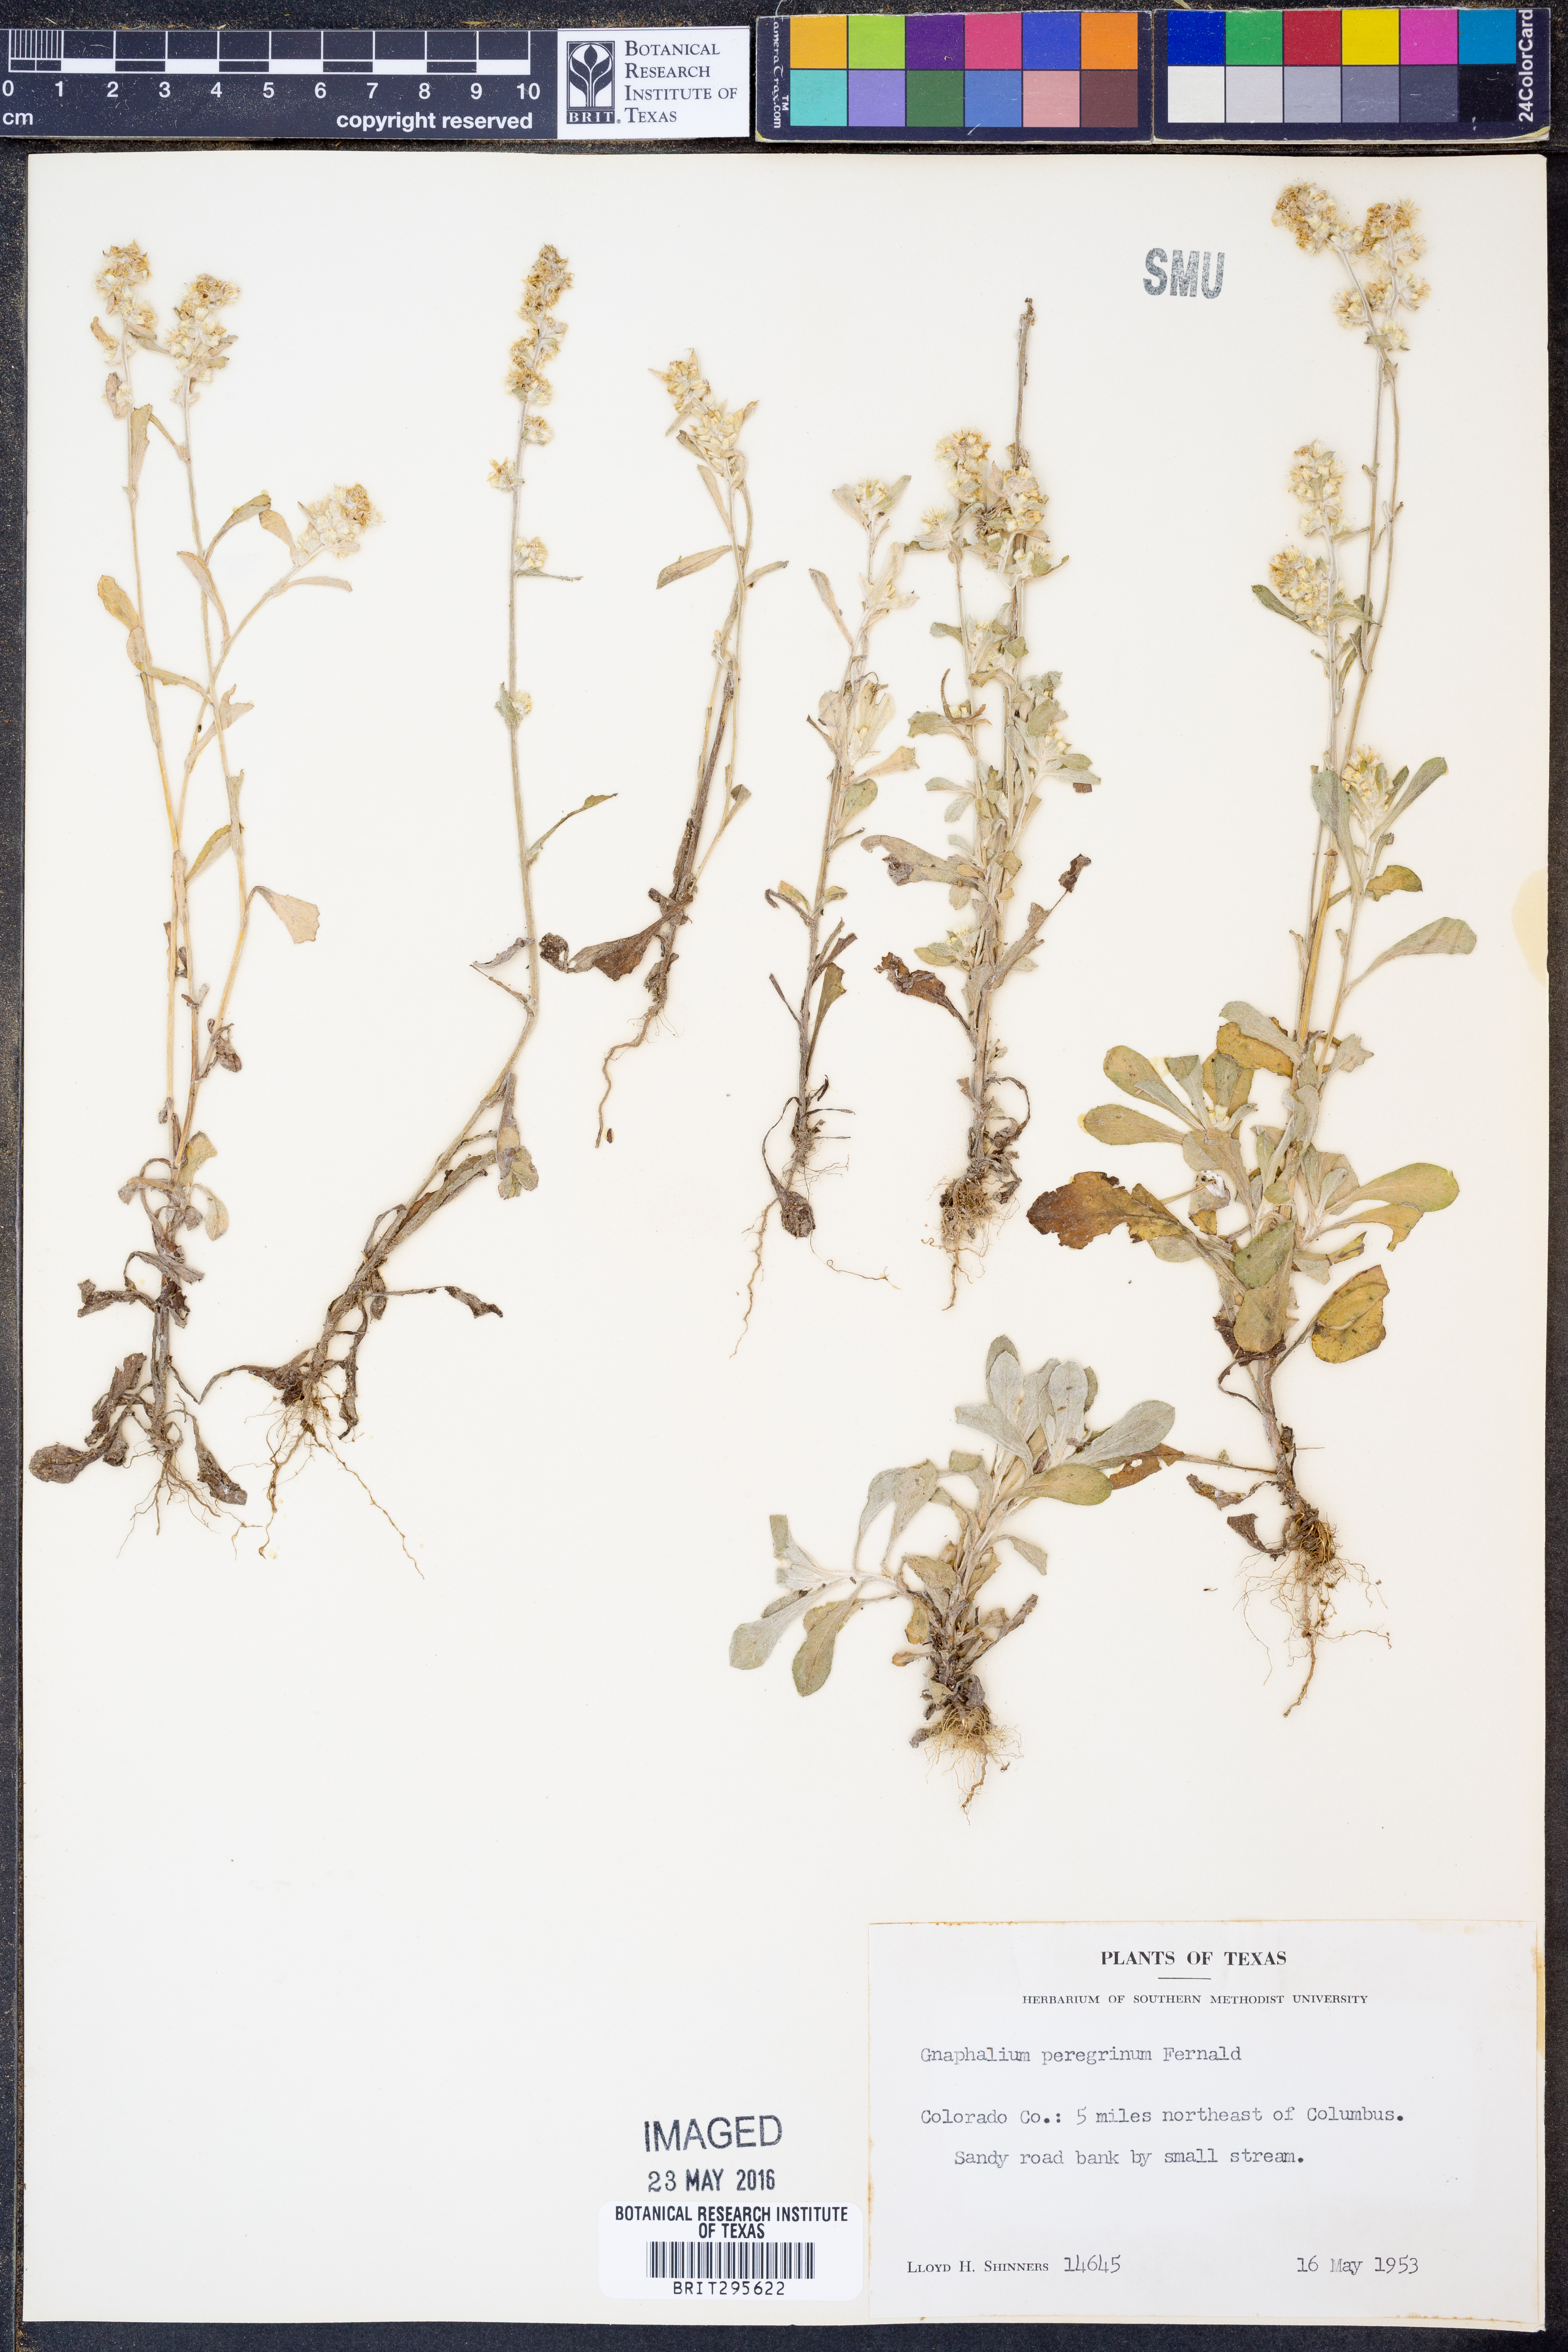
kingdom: Plantae
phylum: Tracheophyta
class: Magnoliopsida
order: Asterales
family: Asteraceae
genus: Gamochaeta
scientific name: Gamochaeta pensylvanica
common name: Pennsylvania everlasting
